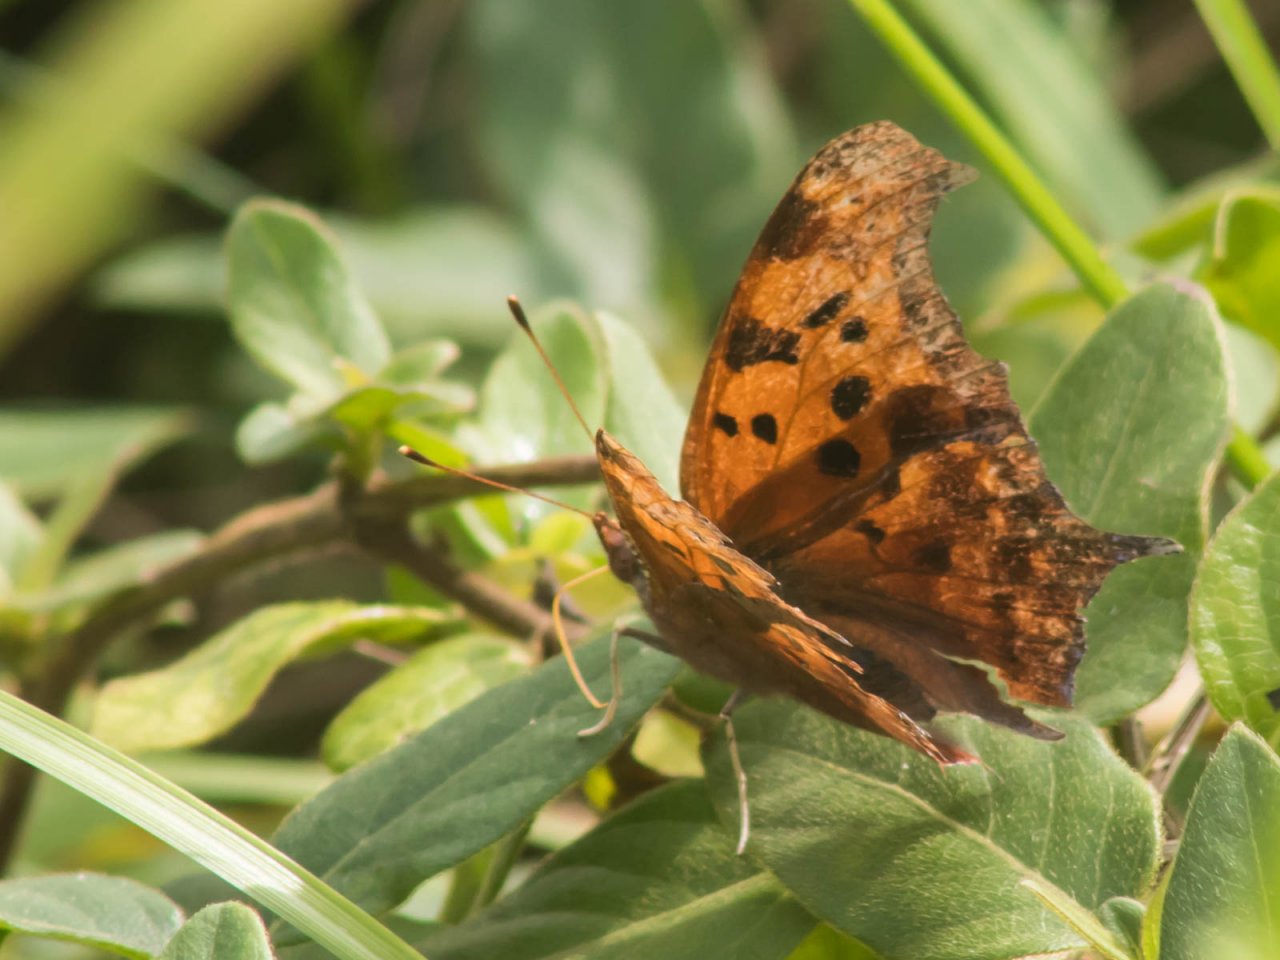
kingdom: Animalia
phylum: Arthropoda
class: Insecta
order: Lepidoptera
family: Nymphalidae
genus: Polygonia
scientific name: Polygonia interrogationis
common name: Question Mark
